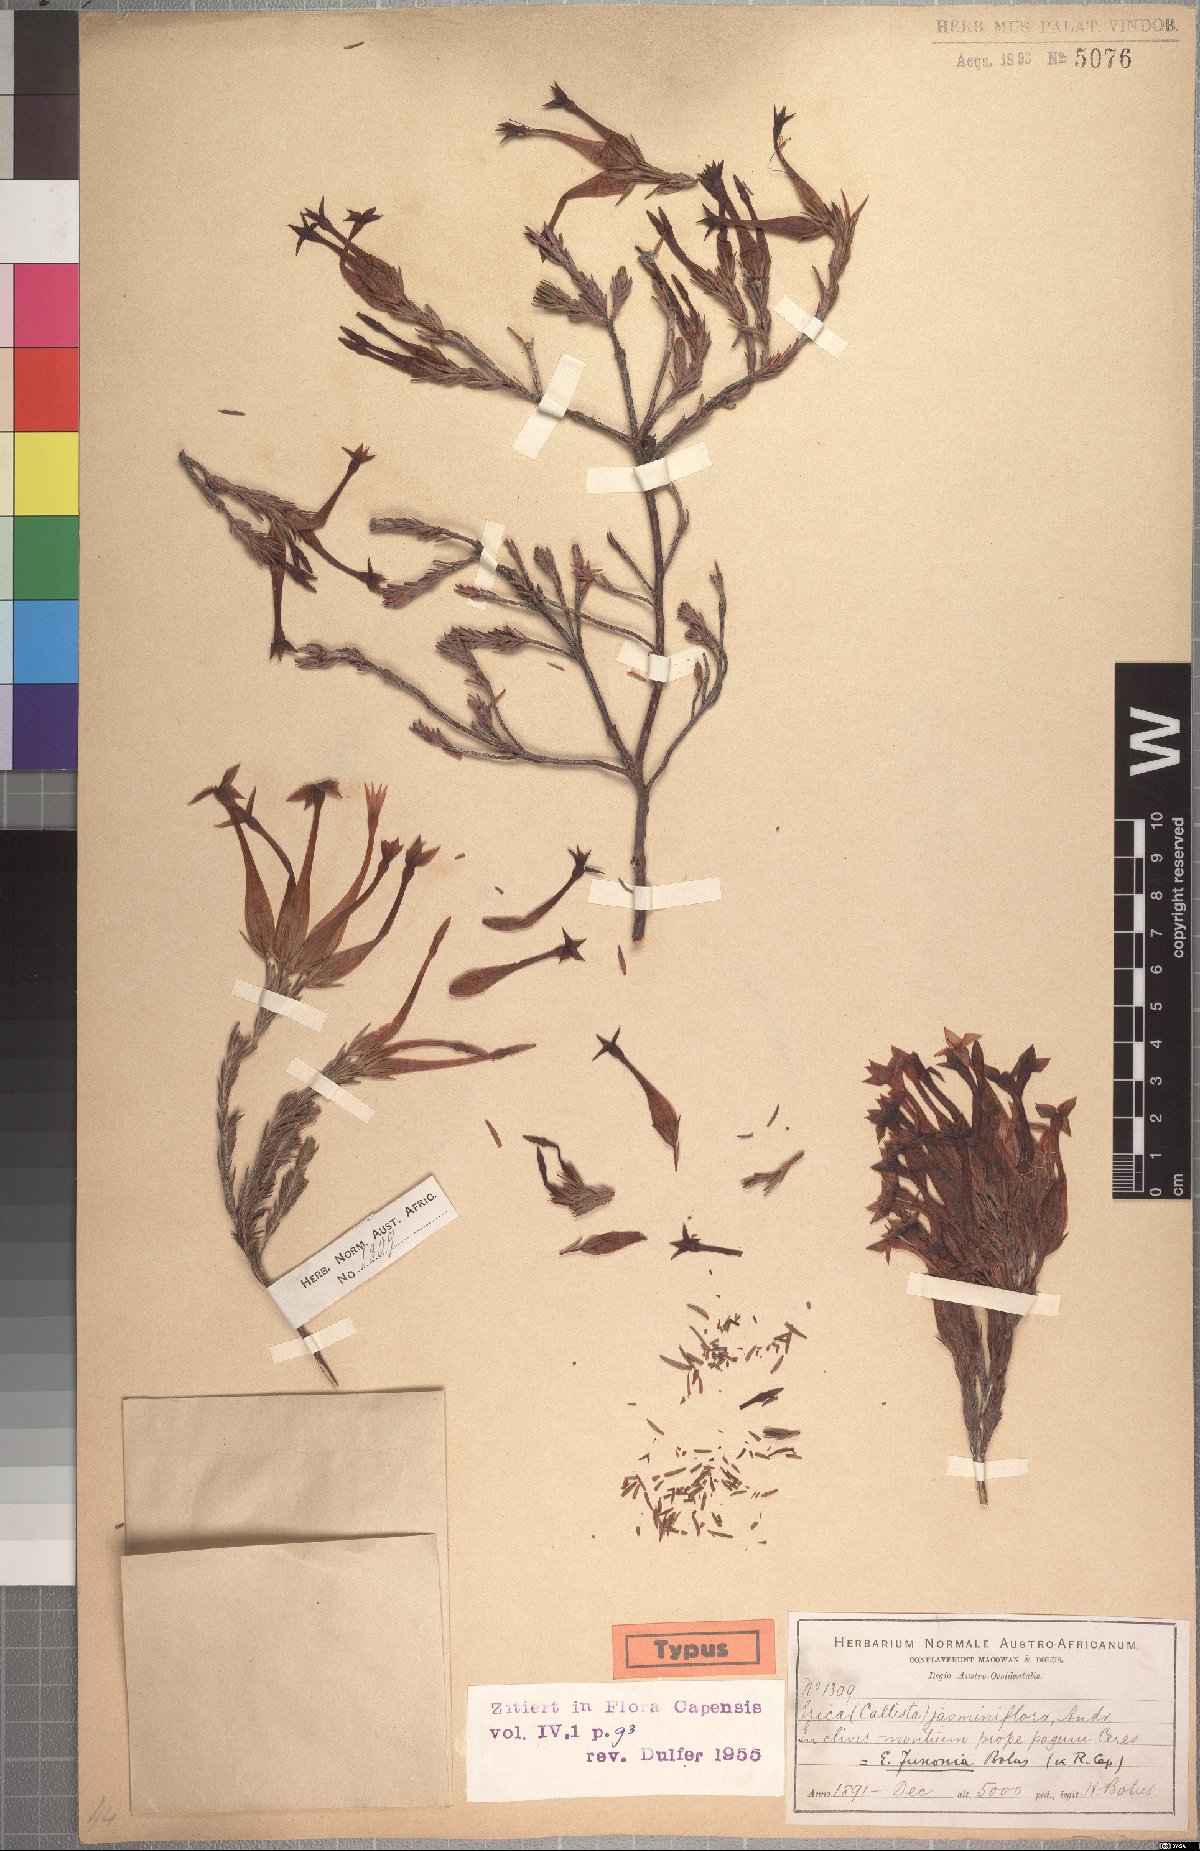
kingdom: Plantae
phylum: Tracheophyta
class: Magnoliopsida
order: Ericales
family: Ericaceae
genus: Erica
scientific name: Erica junonia
